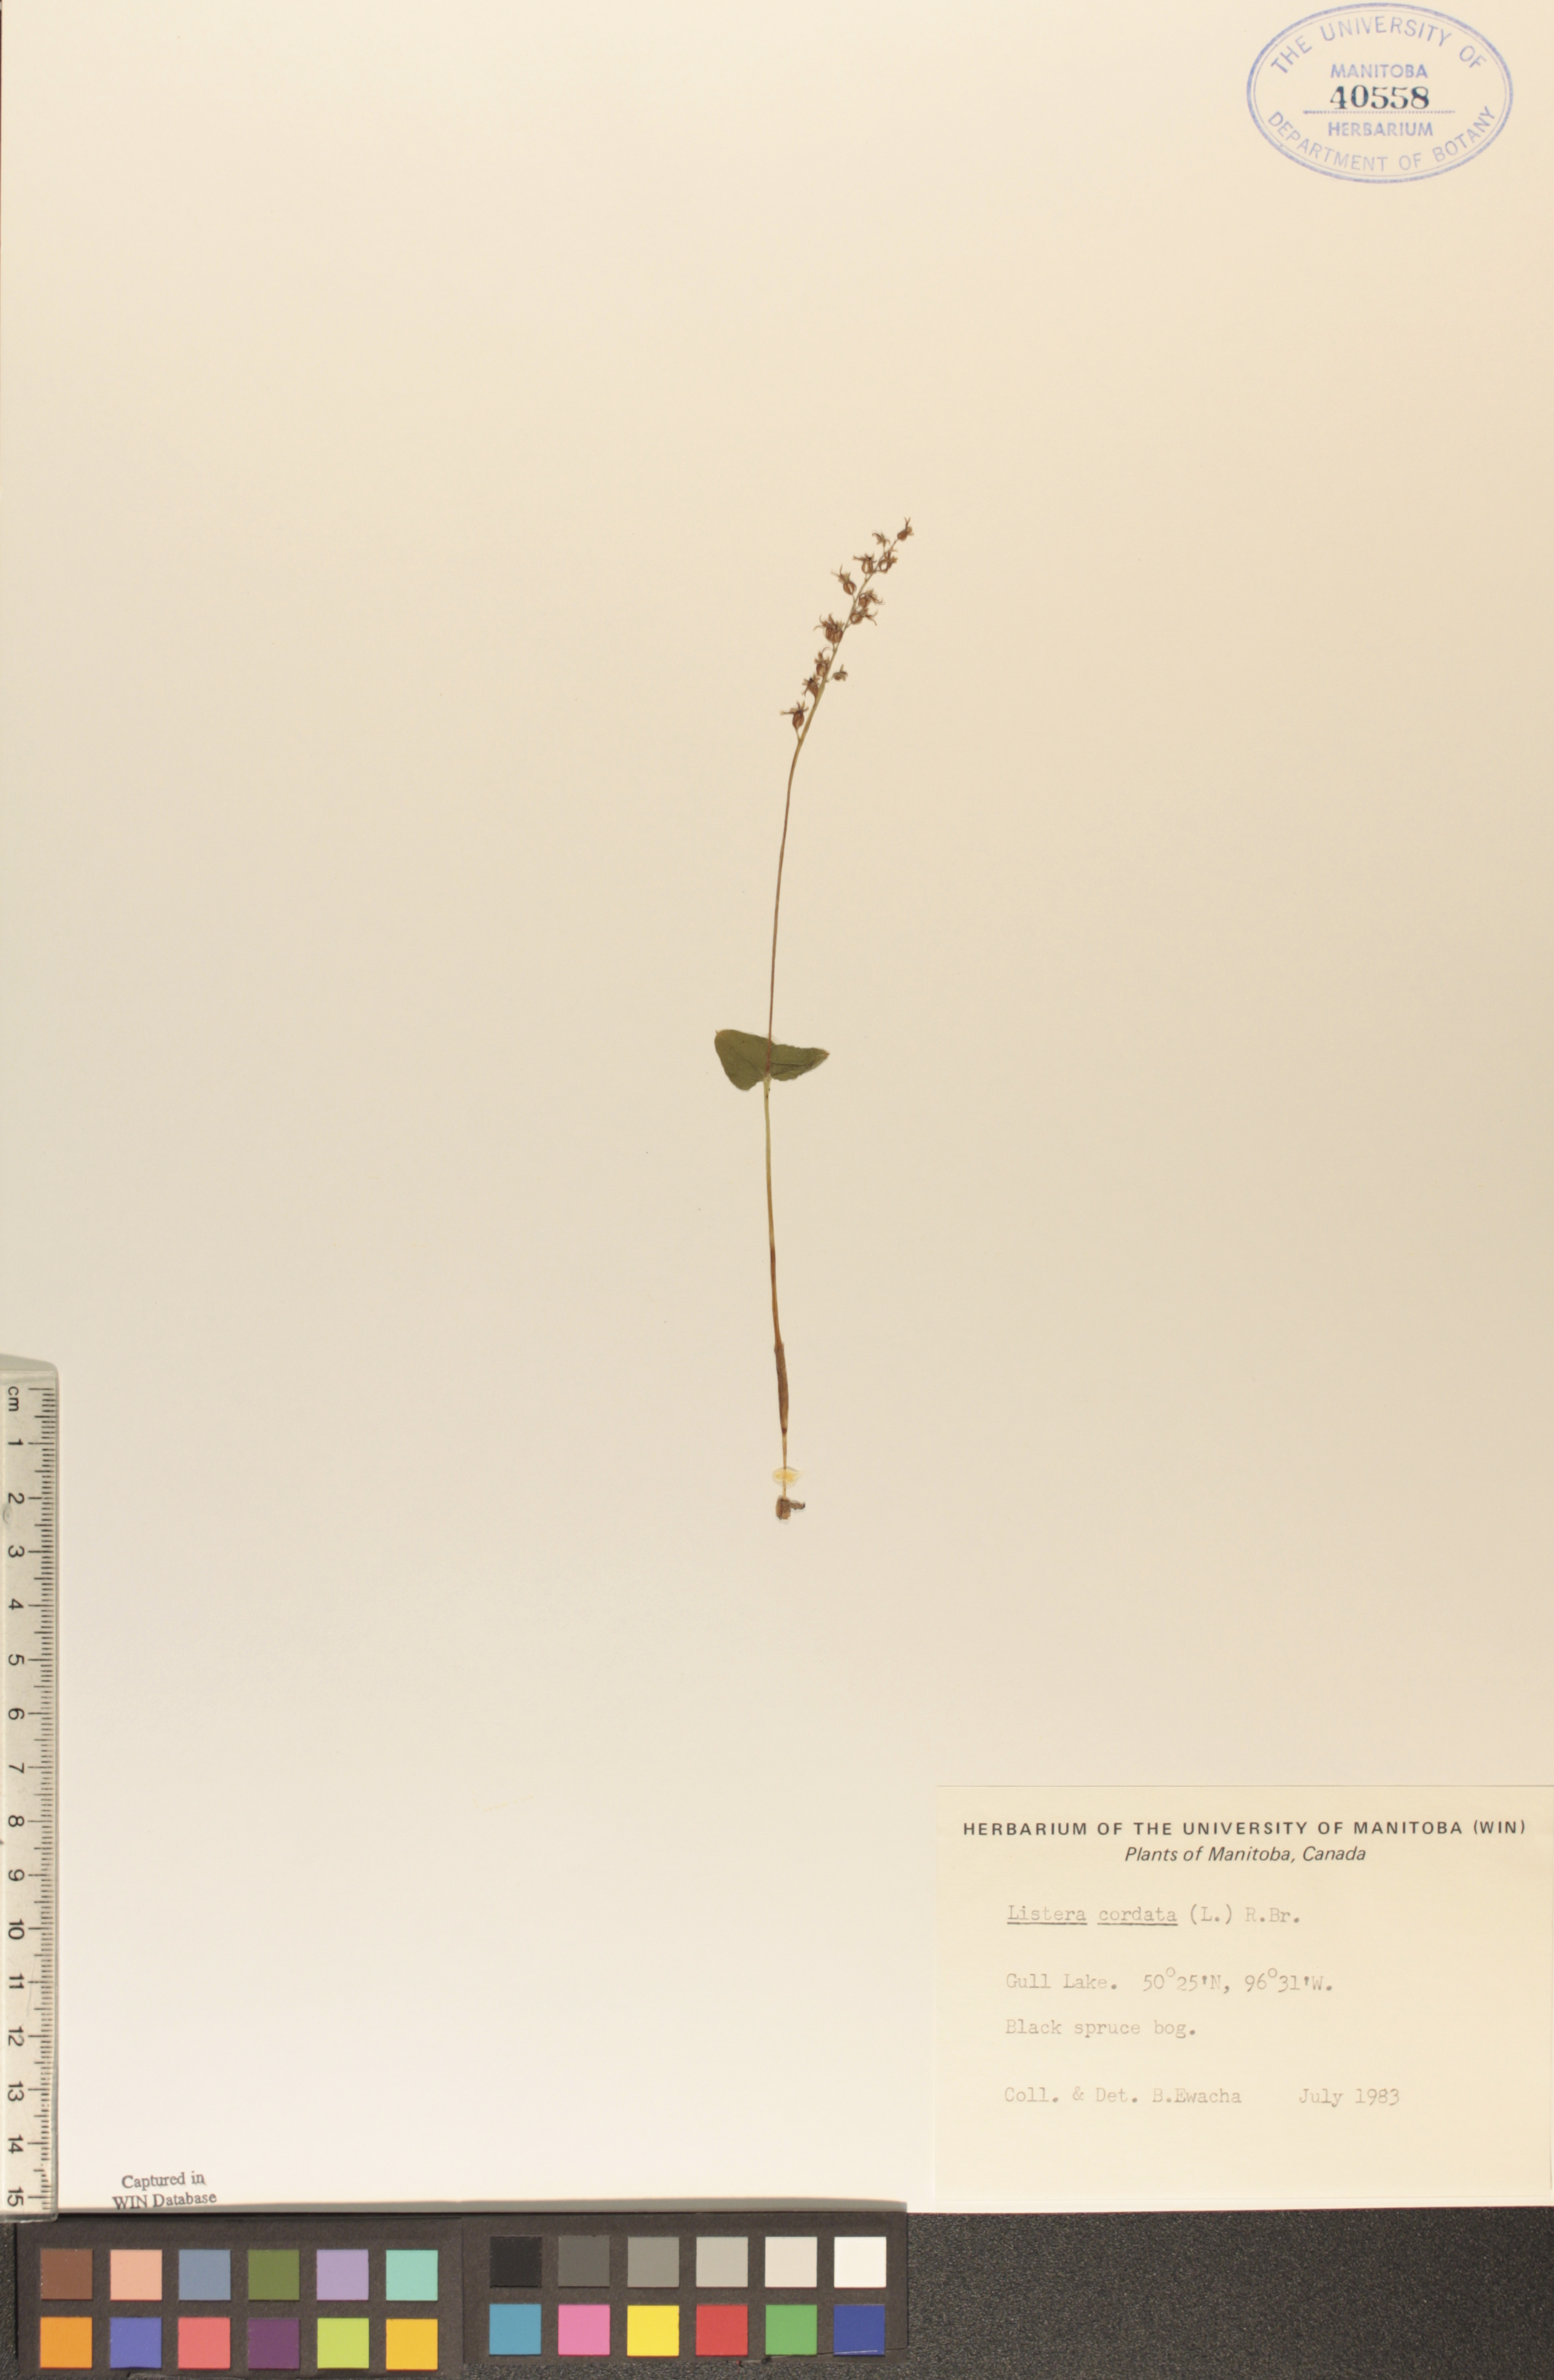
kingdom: Plantae
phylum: Tracheophyta
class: Liliopsida
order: Asparagales
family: Orchidaceae
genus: Neottia
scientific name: Neottia cordata
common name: Lesser twayblade
